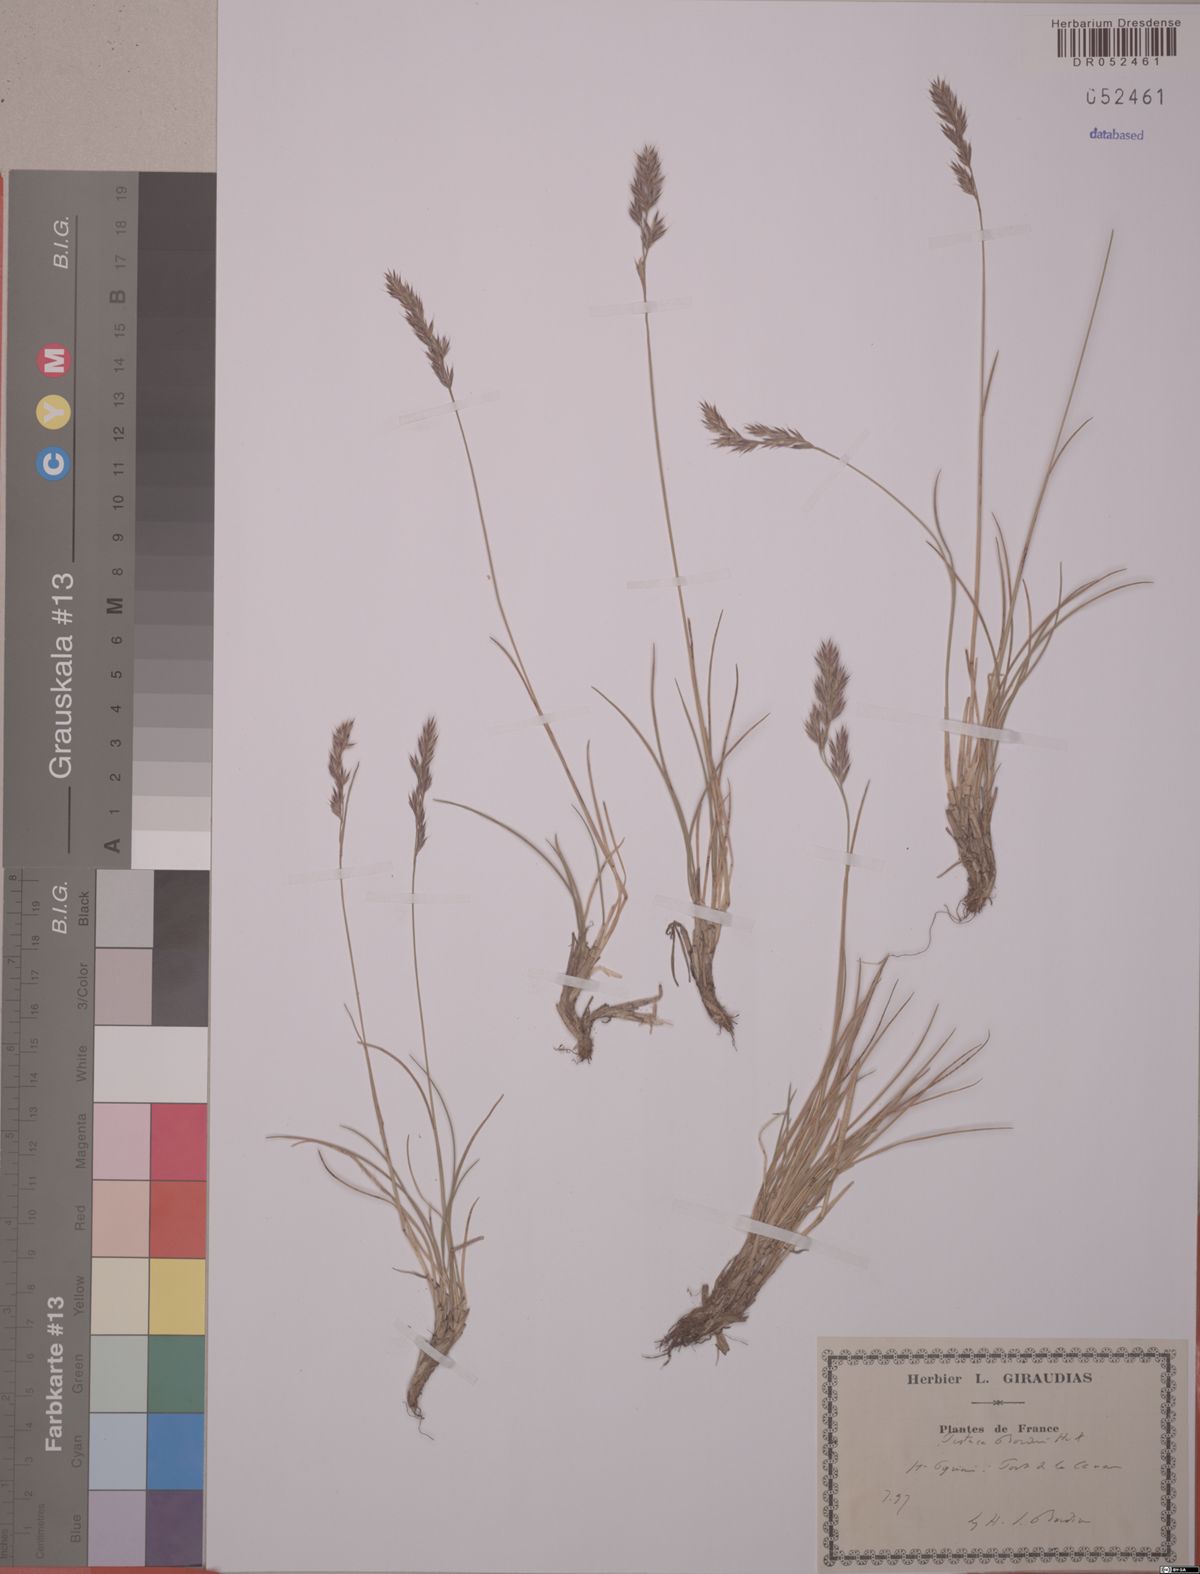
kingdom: Plantae
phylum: Tracheophyta
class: Liliopsida
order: Poales
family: Poaceae
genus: Festuca
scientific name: Festuca gautieri
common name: Spiky fescue
